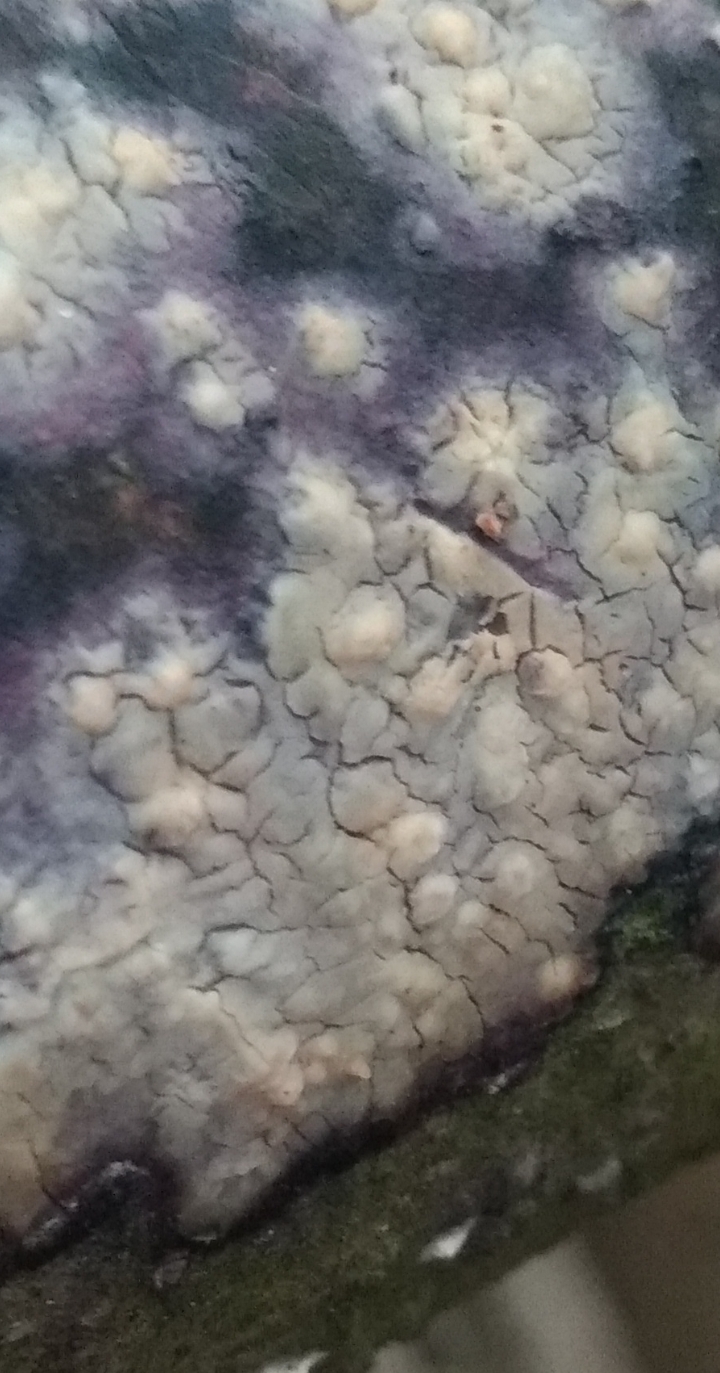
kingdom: Fungi
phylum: Basidiomycota
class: Agaricomycetes
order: Corticiales
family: Corticiaceae
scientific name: Corticiaceae
